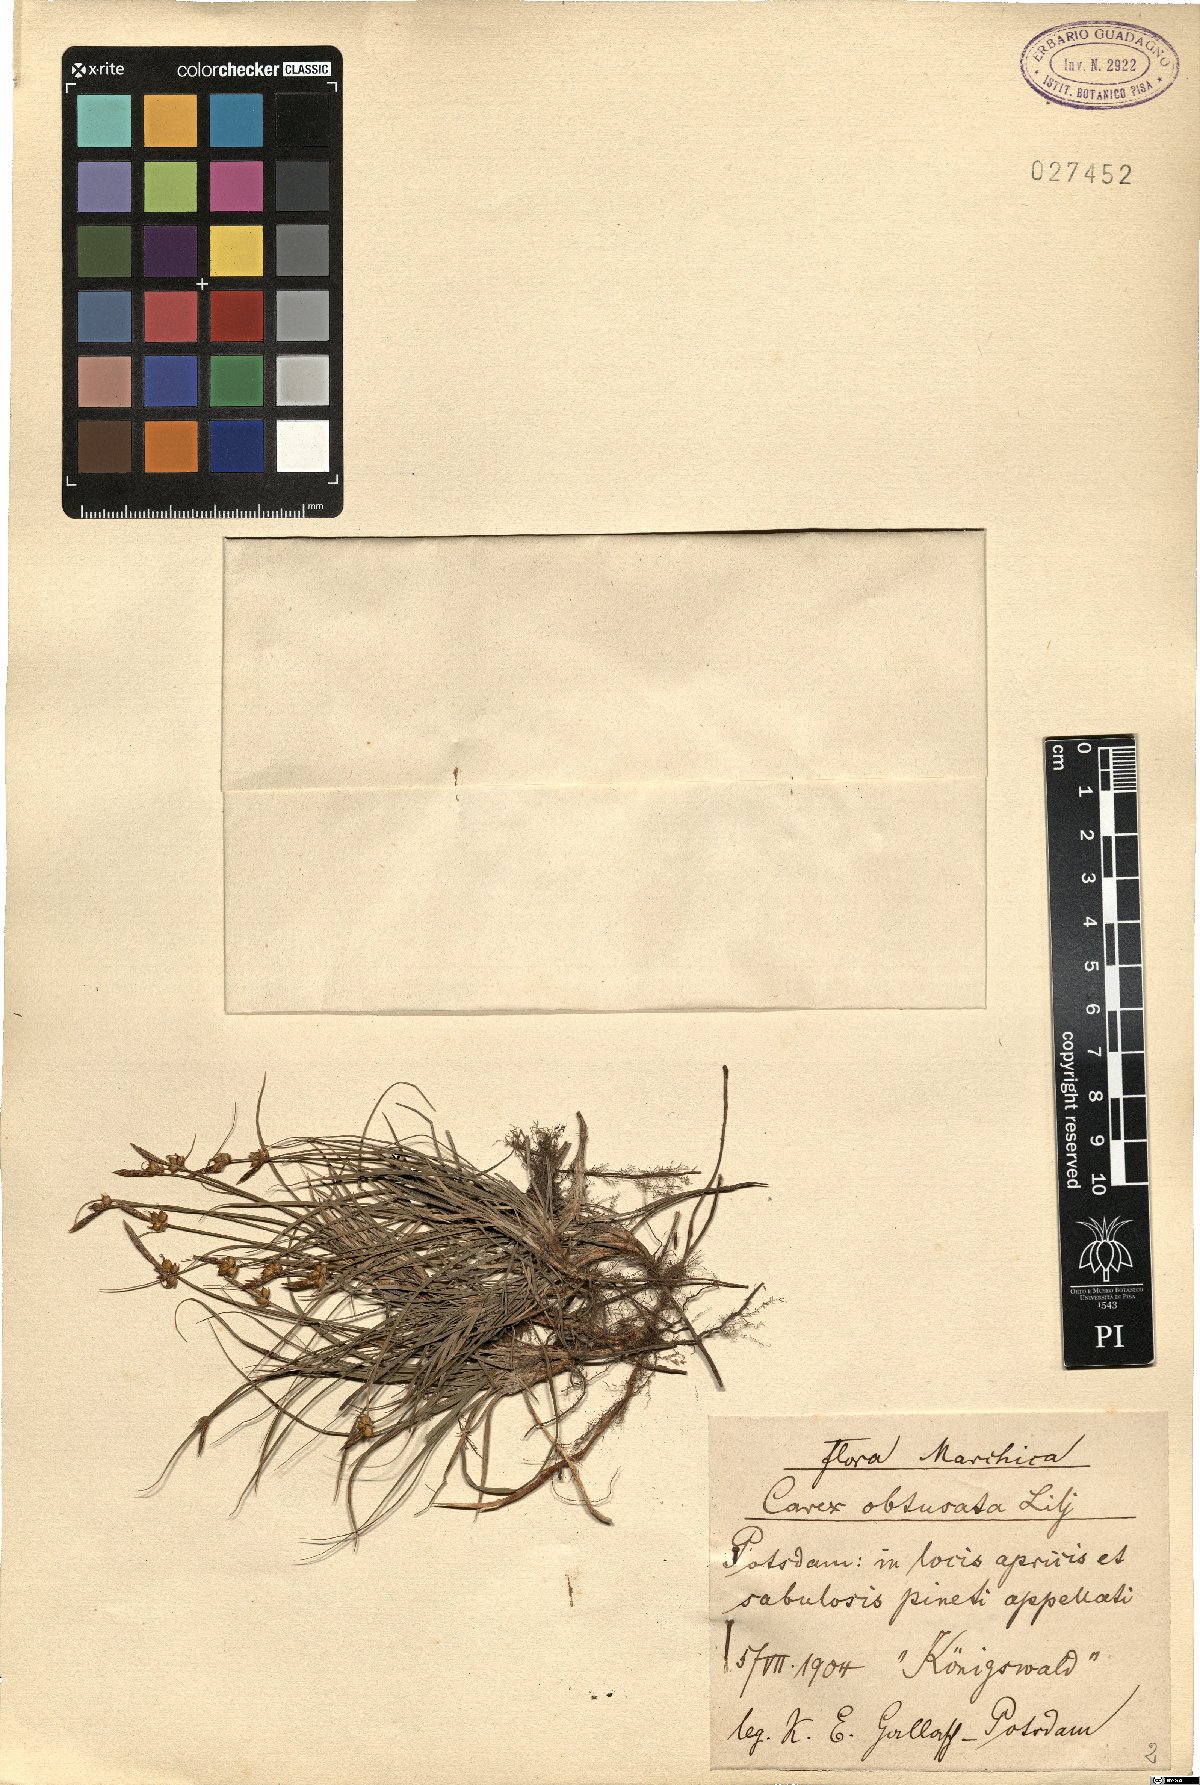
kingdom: Plantae
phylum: Tracheophyta
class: Liliopsida
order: Poales
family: Cyperaceae
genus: Carex
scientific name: Carex obtusata
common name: Blunt sedge
